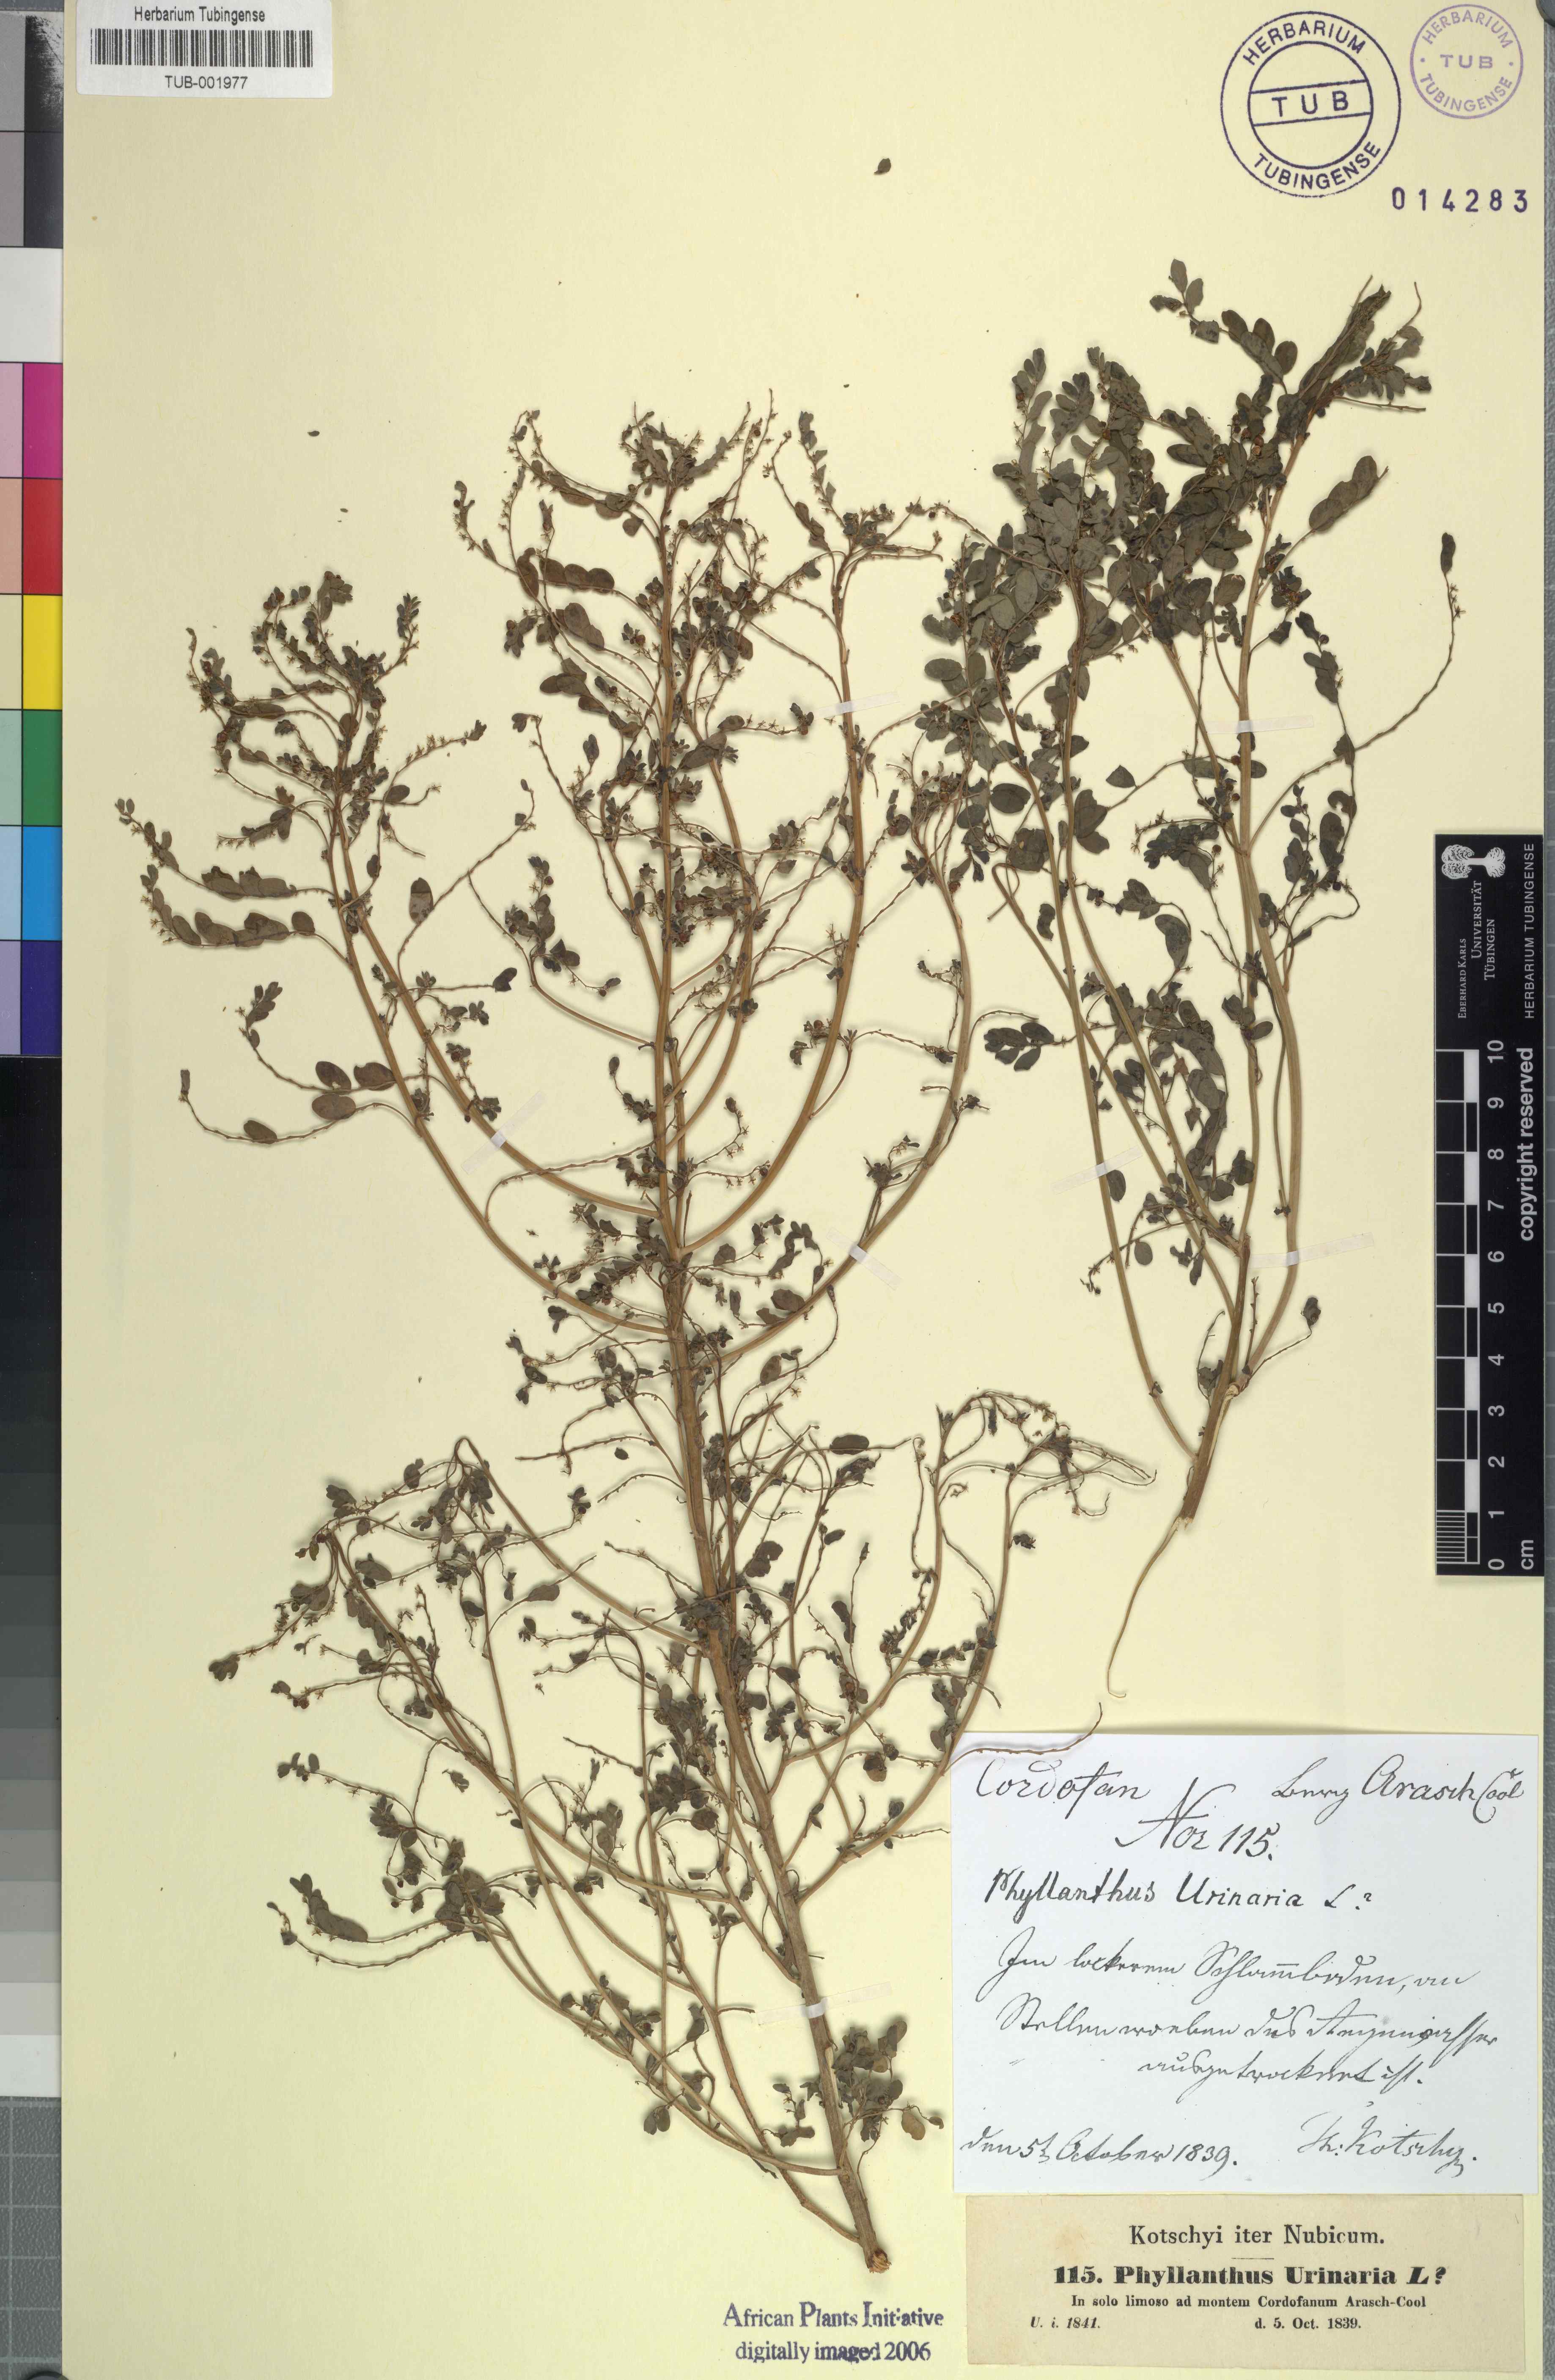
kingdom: Plantae
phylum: Tracheophyta
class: Magnoliopsida
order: Malpighiales
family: Phyllanthaceae
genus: Phyllanthus
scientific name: Phyllanthus urinaria
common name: Chamber bitter
